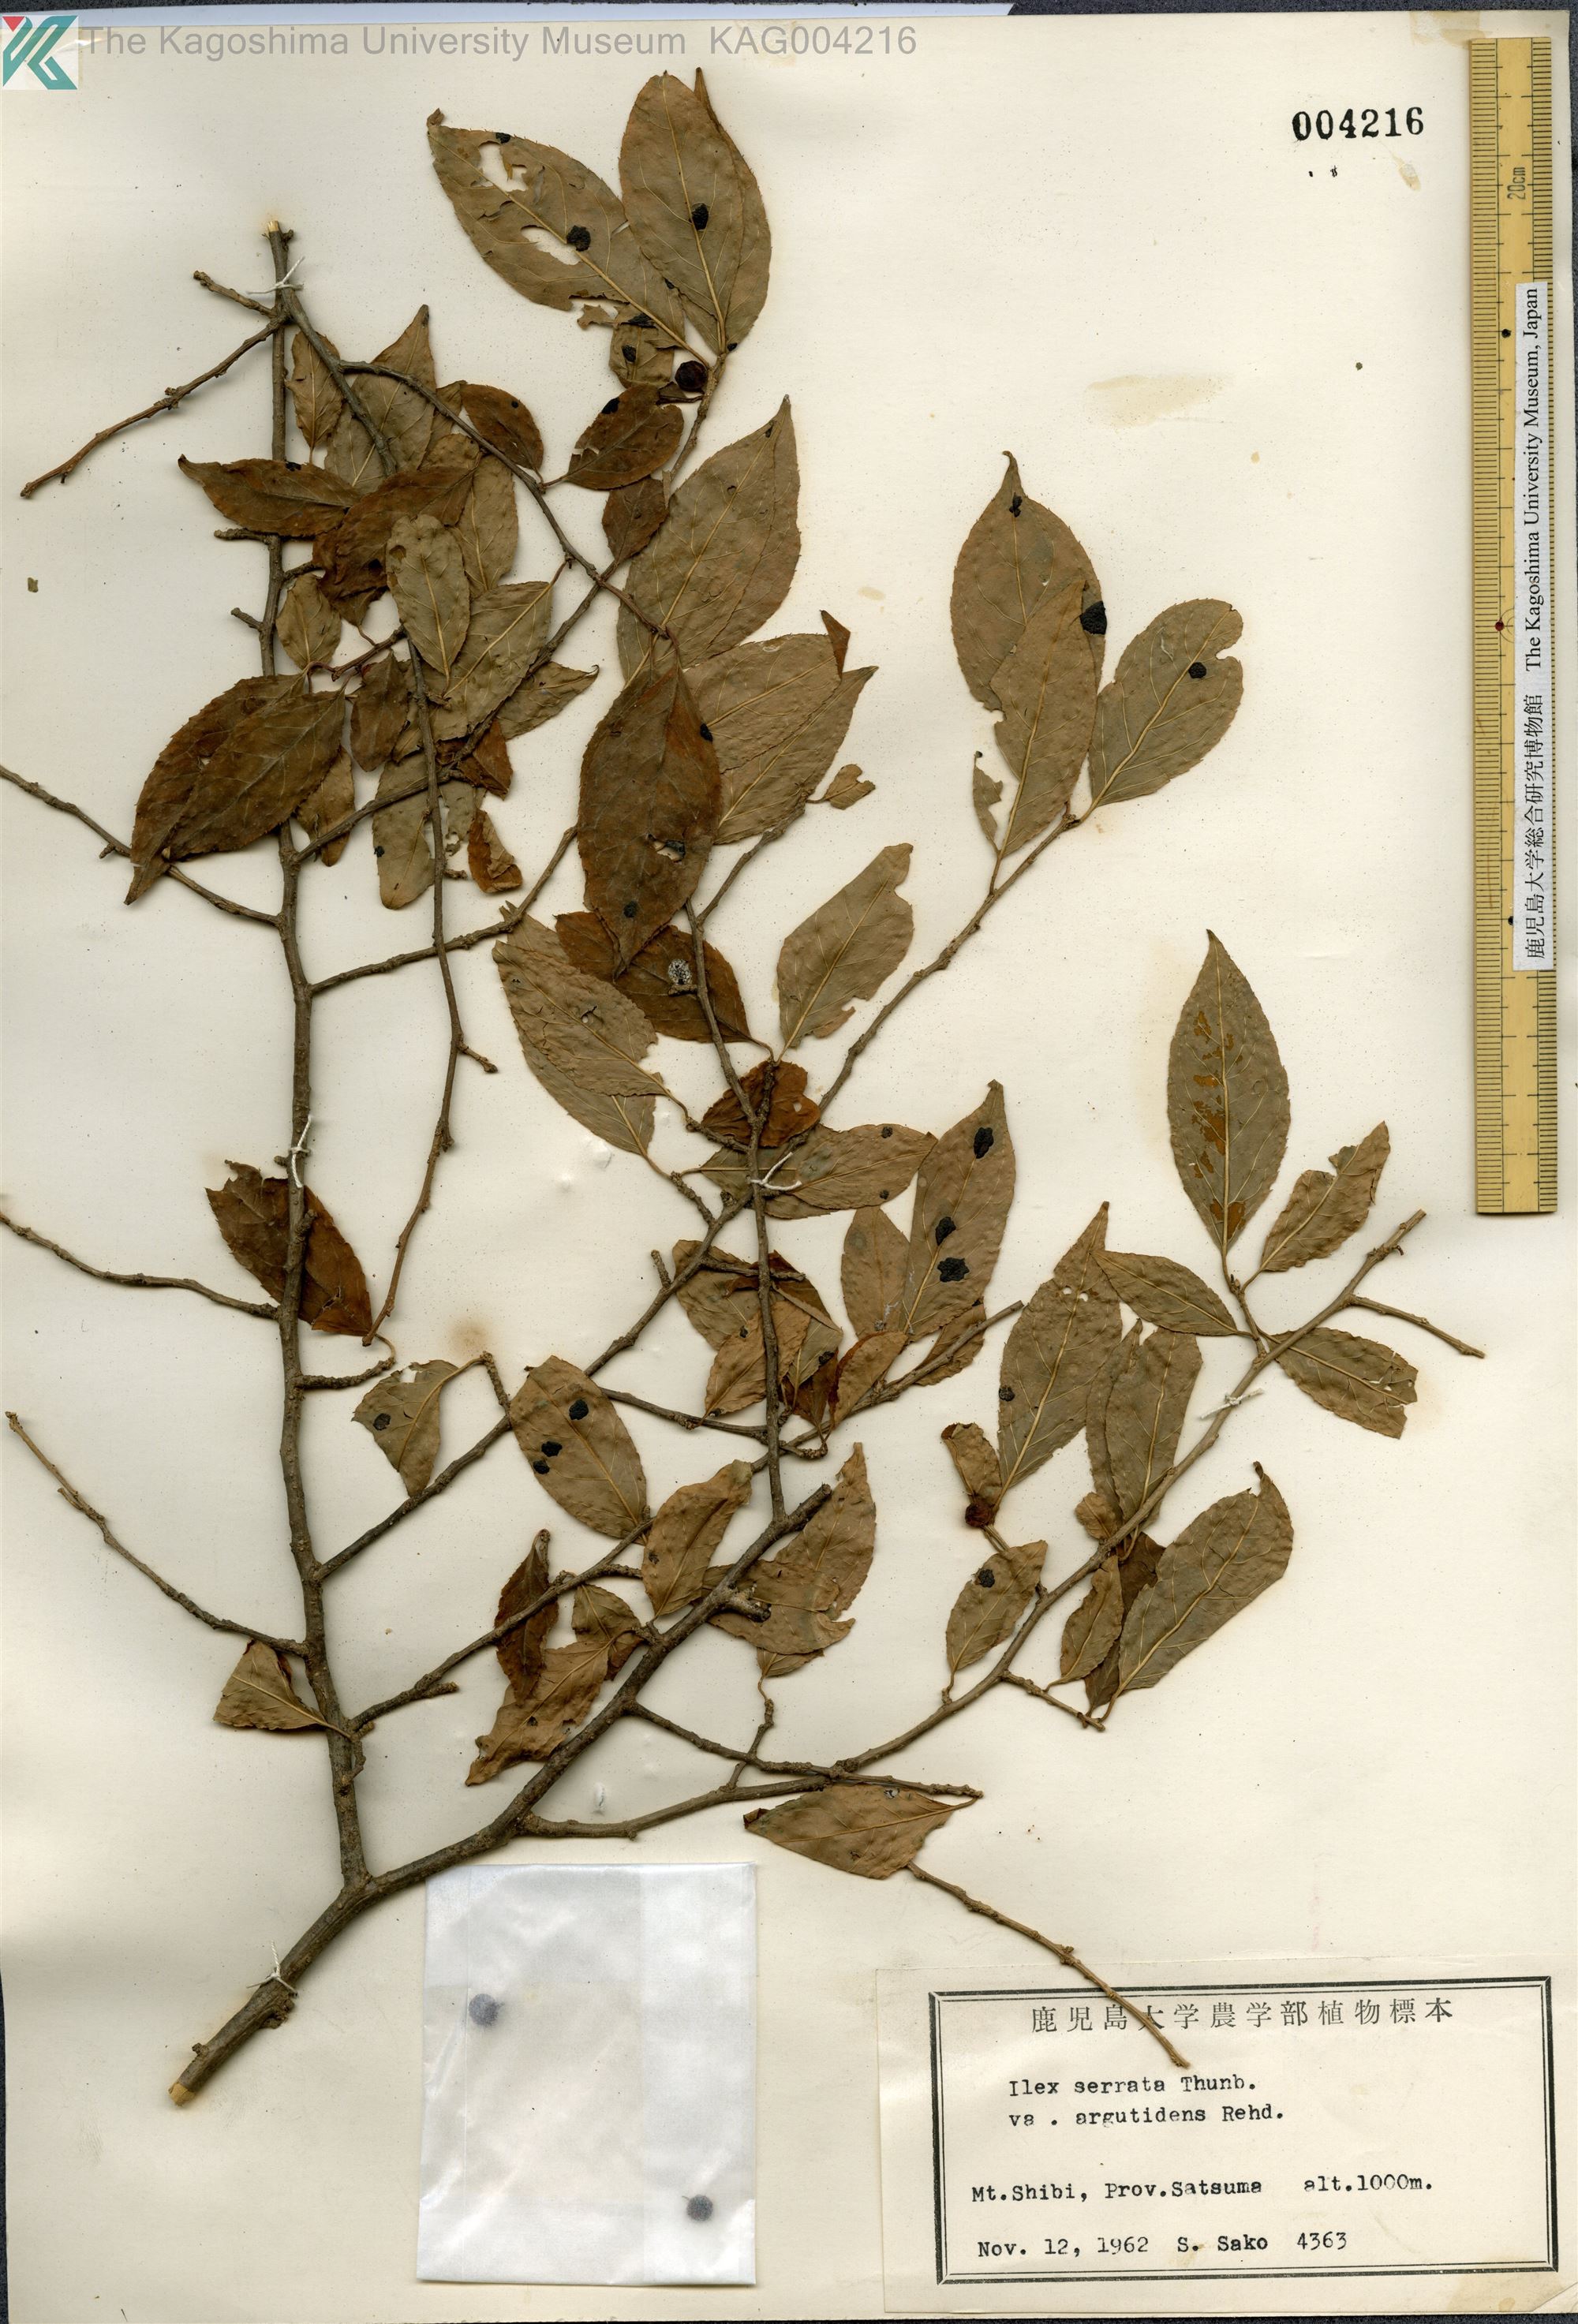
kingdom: Plantae
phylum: Tracheophyta
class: Magnoliopsida
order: Aquifoliales
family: Aquifoliaceae
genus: Ilex
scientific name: Ilex serrata
